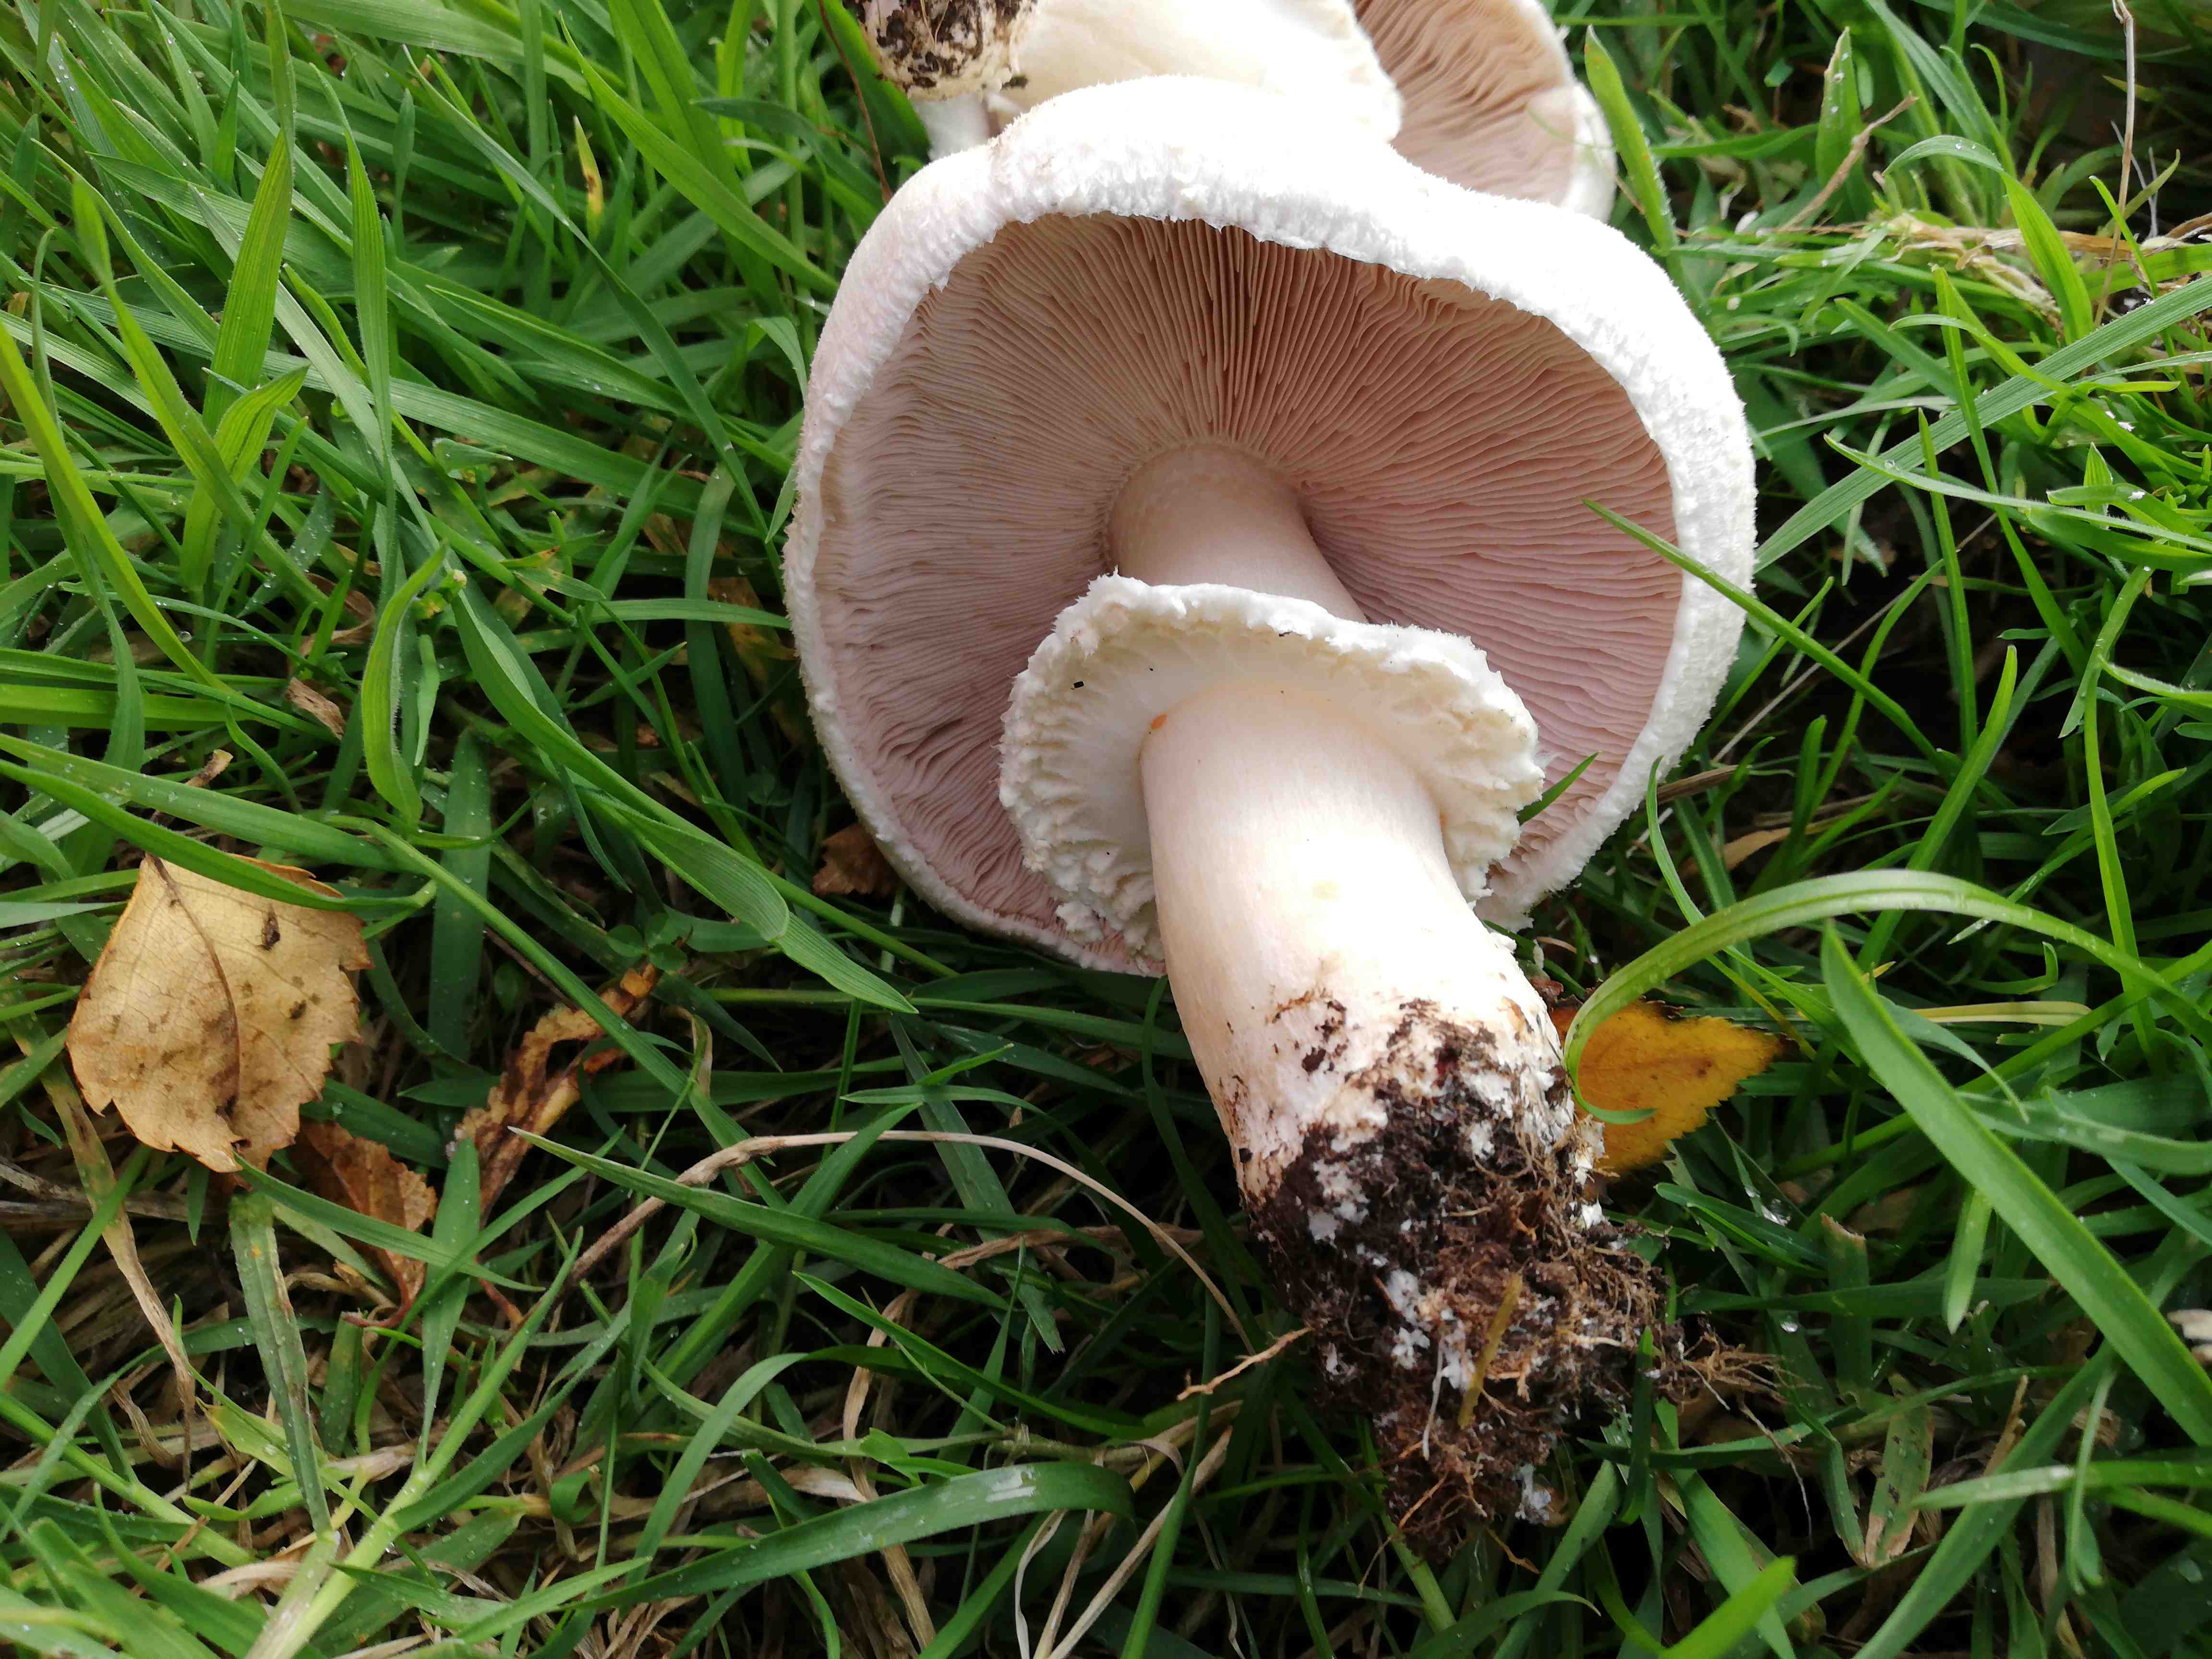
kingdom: Fungi
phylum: Basidiomycota
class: Agaricomycetes
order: Agaricales
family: Agaricaceae
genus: Agaricus
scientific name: Agaricus
